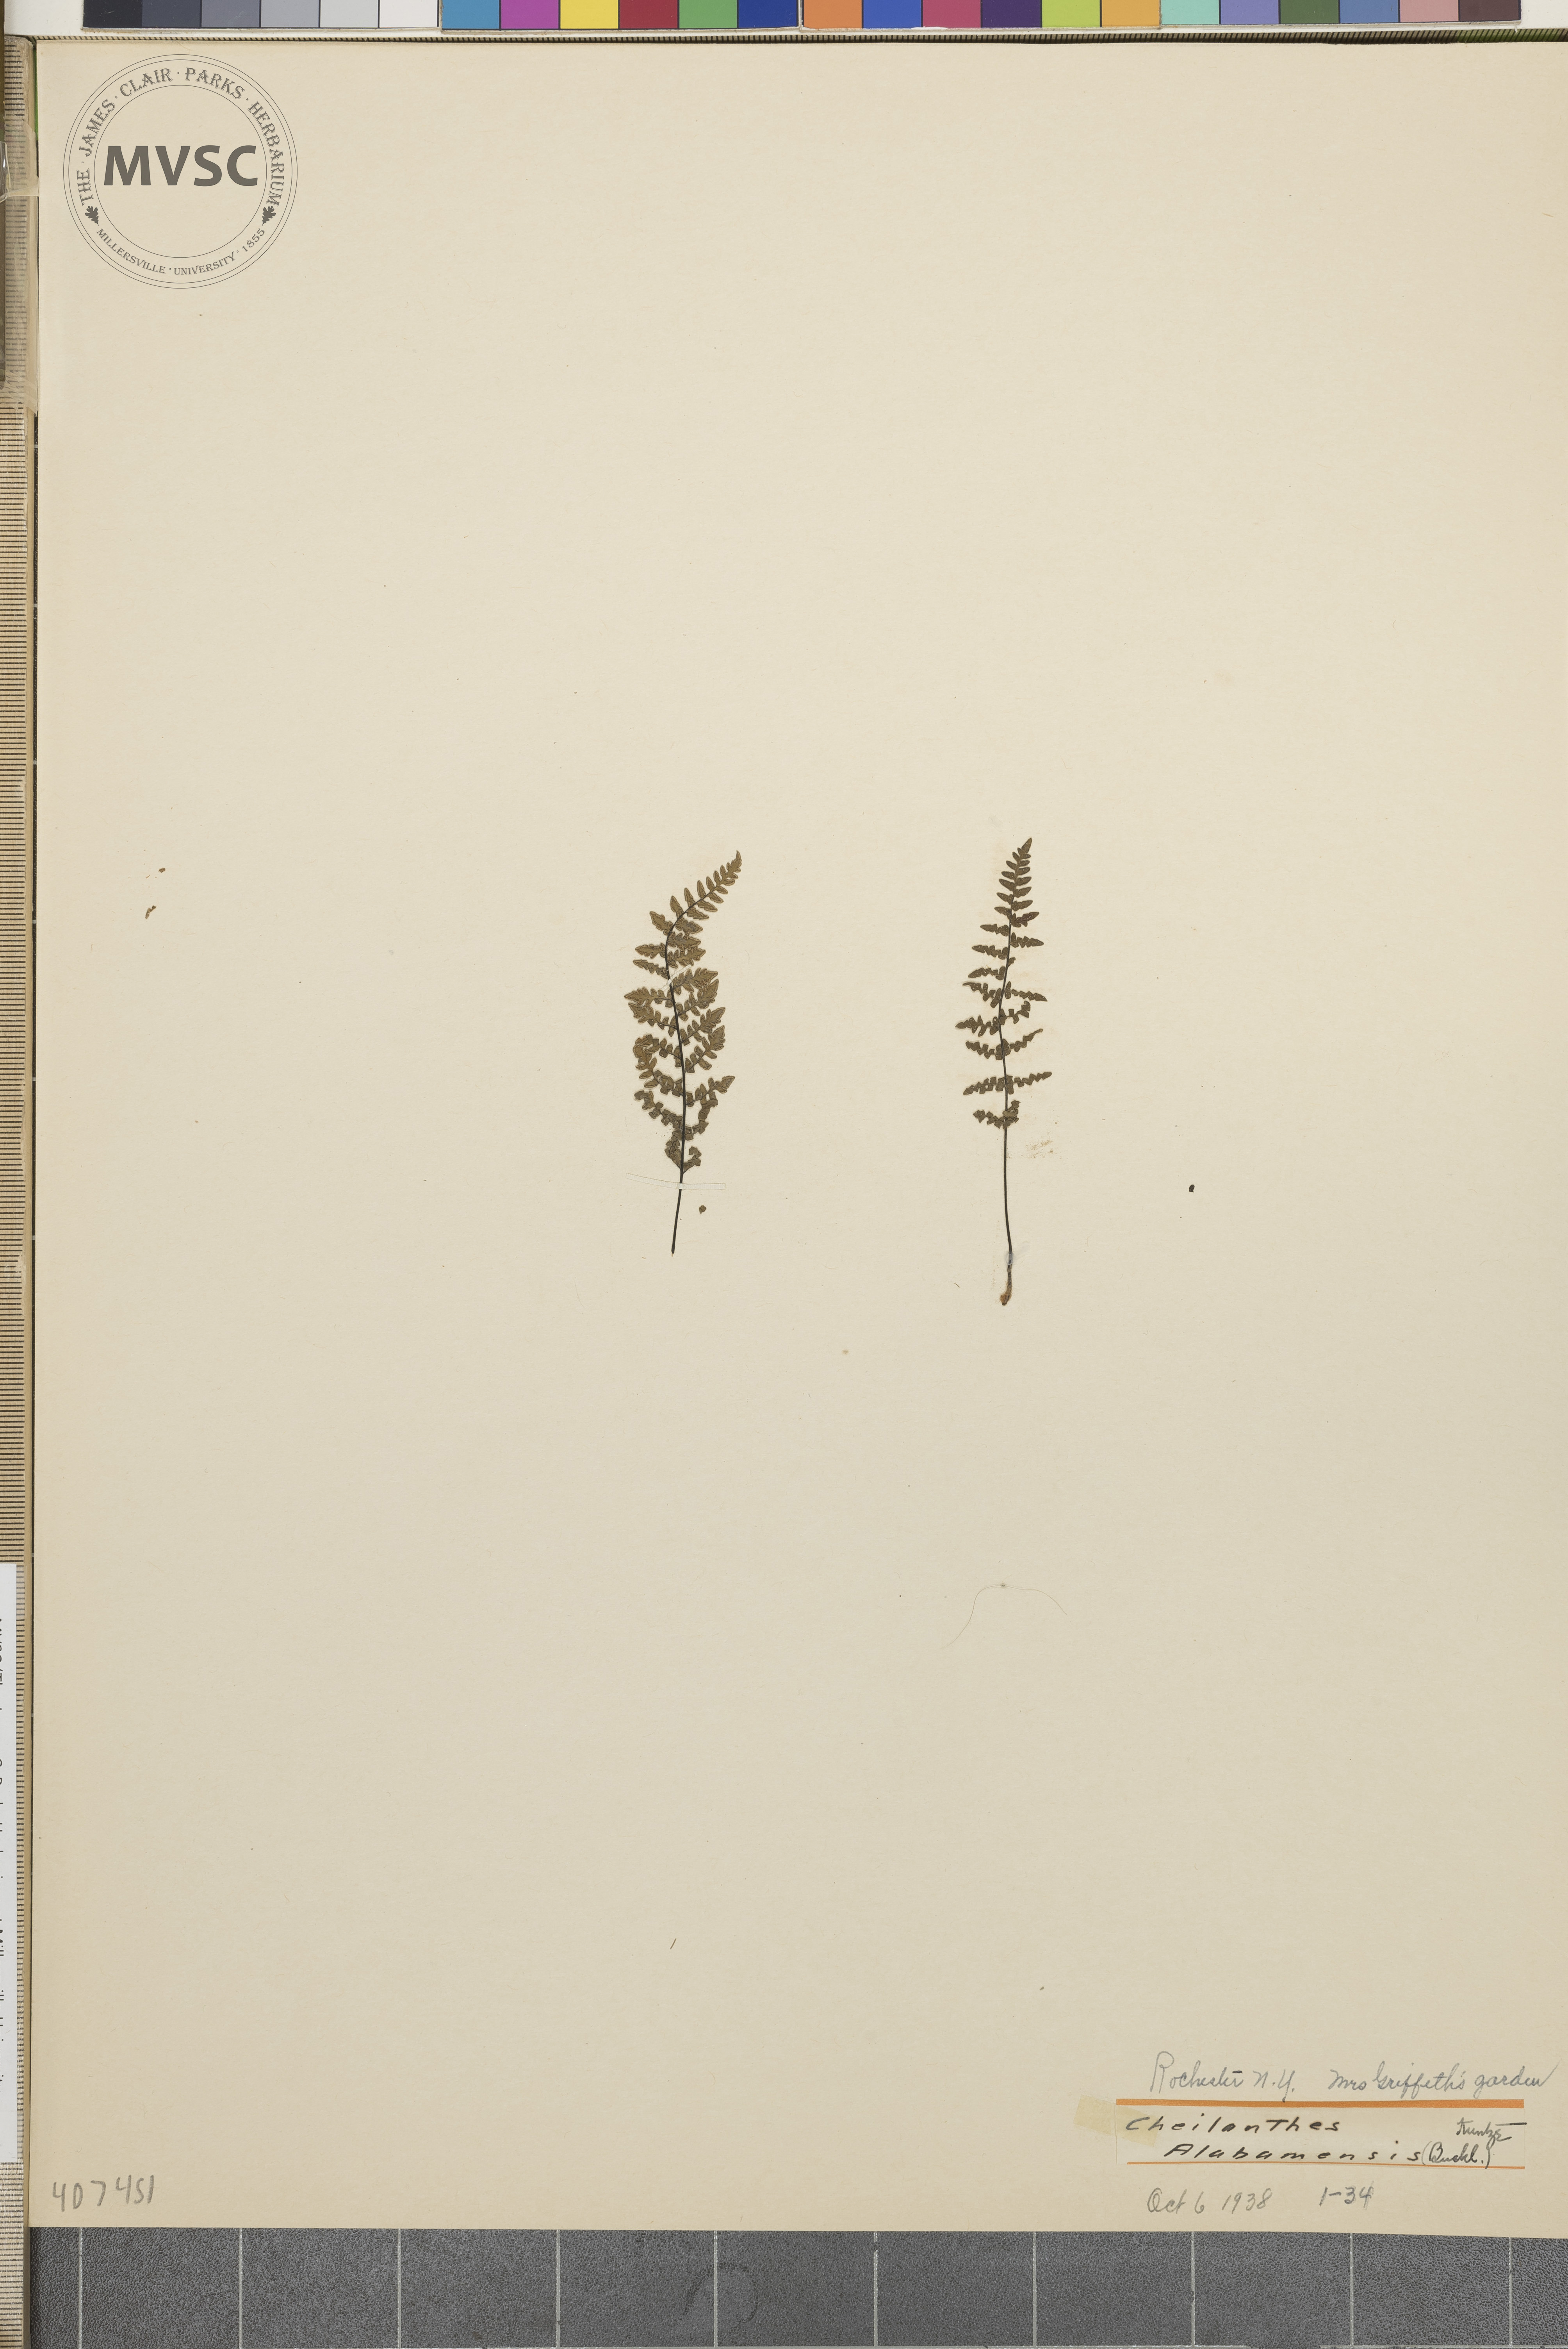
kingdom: Plantae
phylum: Tracheophyta
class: Polypodiopsida
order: Polypodiales
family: Pteridaceae
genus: Myriopteris
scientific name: Myriopteris alabamensis
